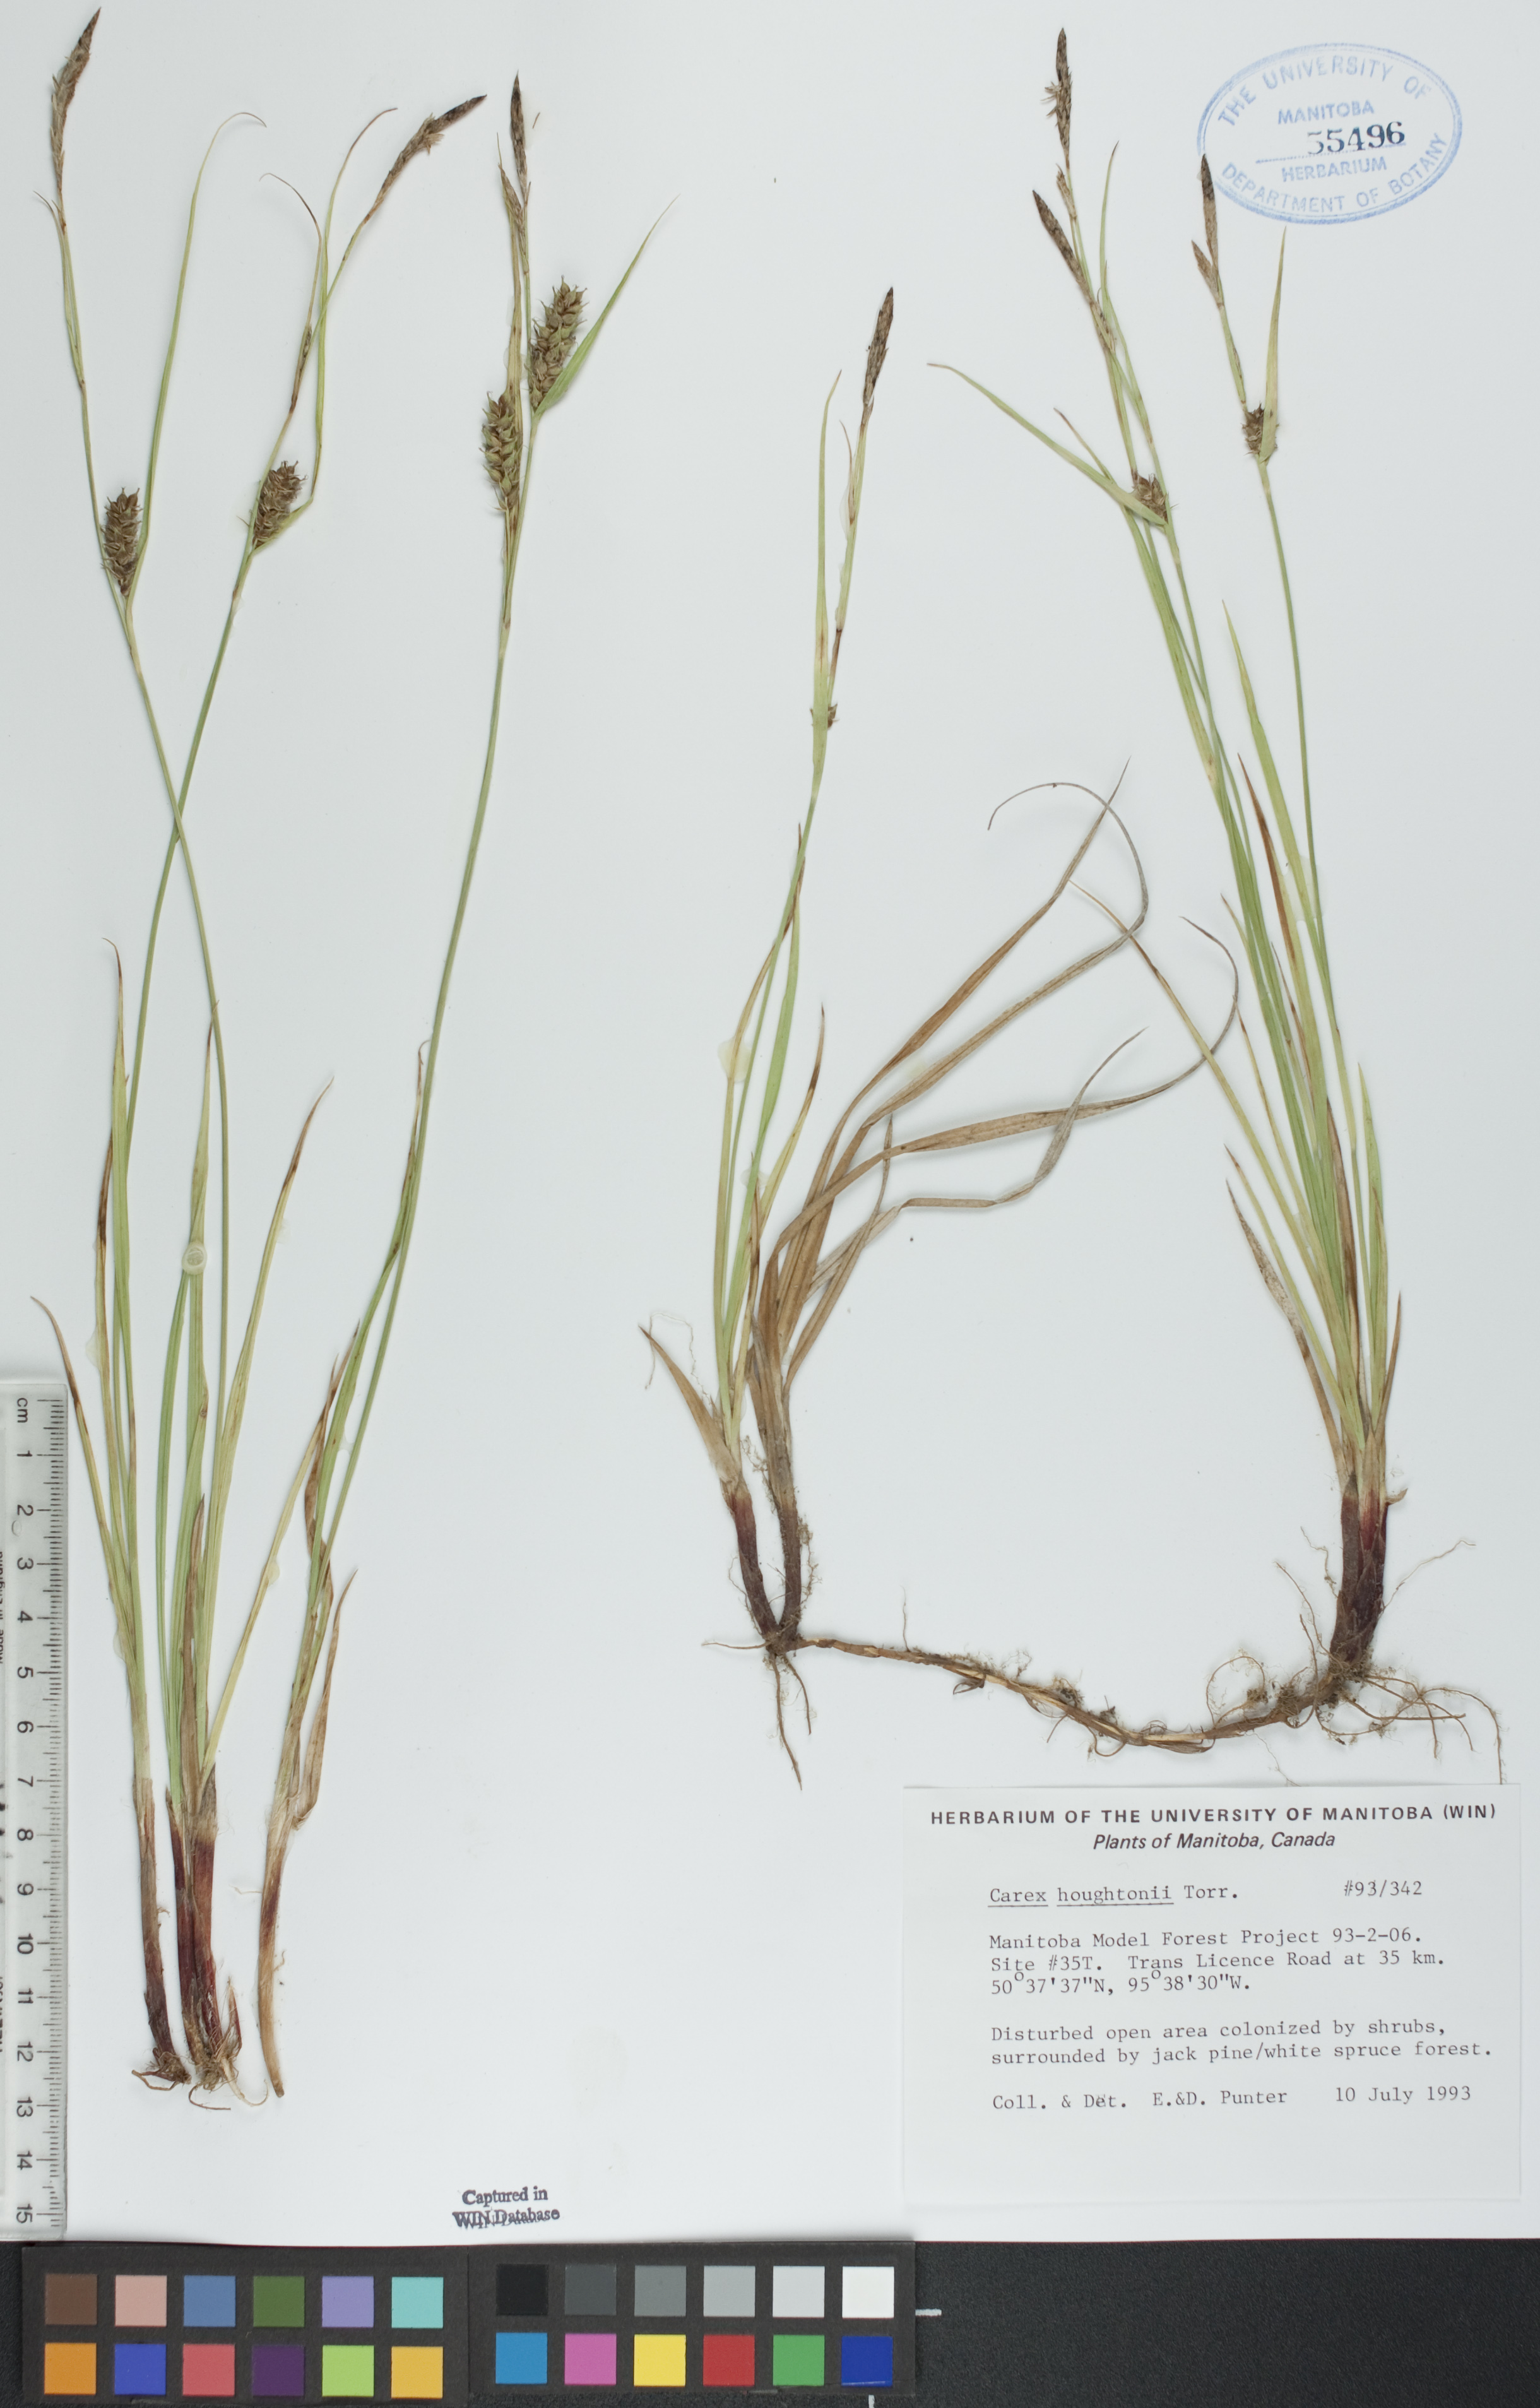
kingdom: Plantae
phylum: Tracheophyta
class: Liliopsida
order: Poales
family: Cyperaceae
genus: Carex
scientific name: Carex houghtoniana
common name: Houghton's sedge
